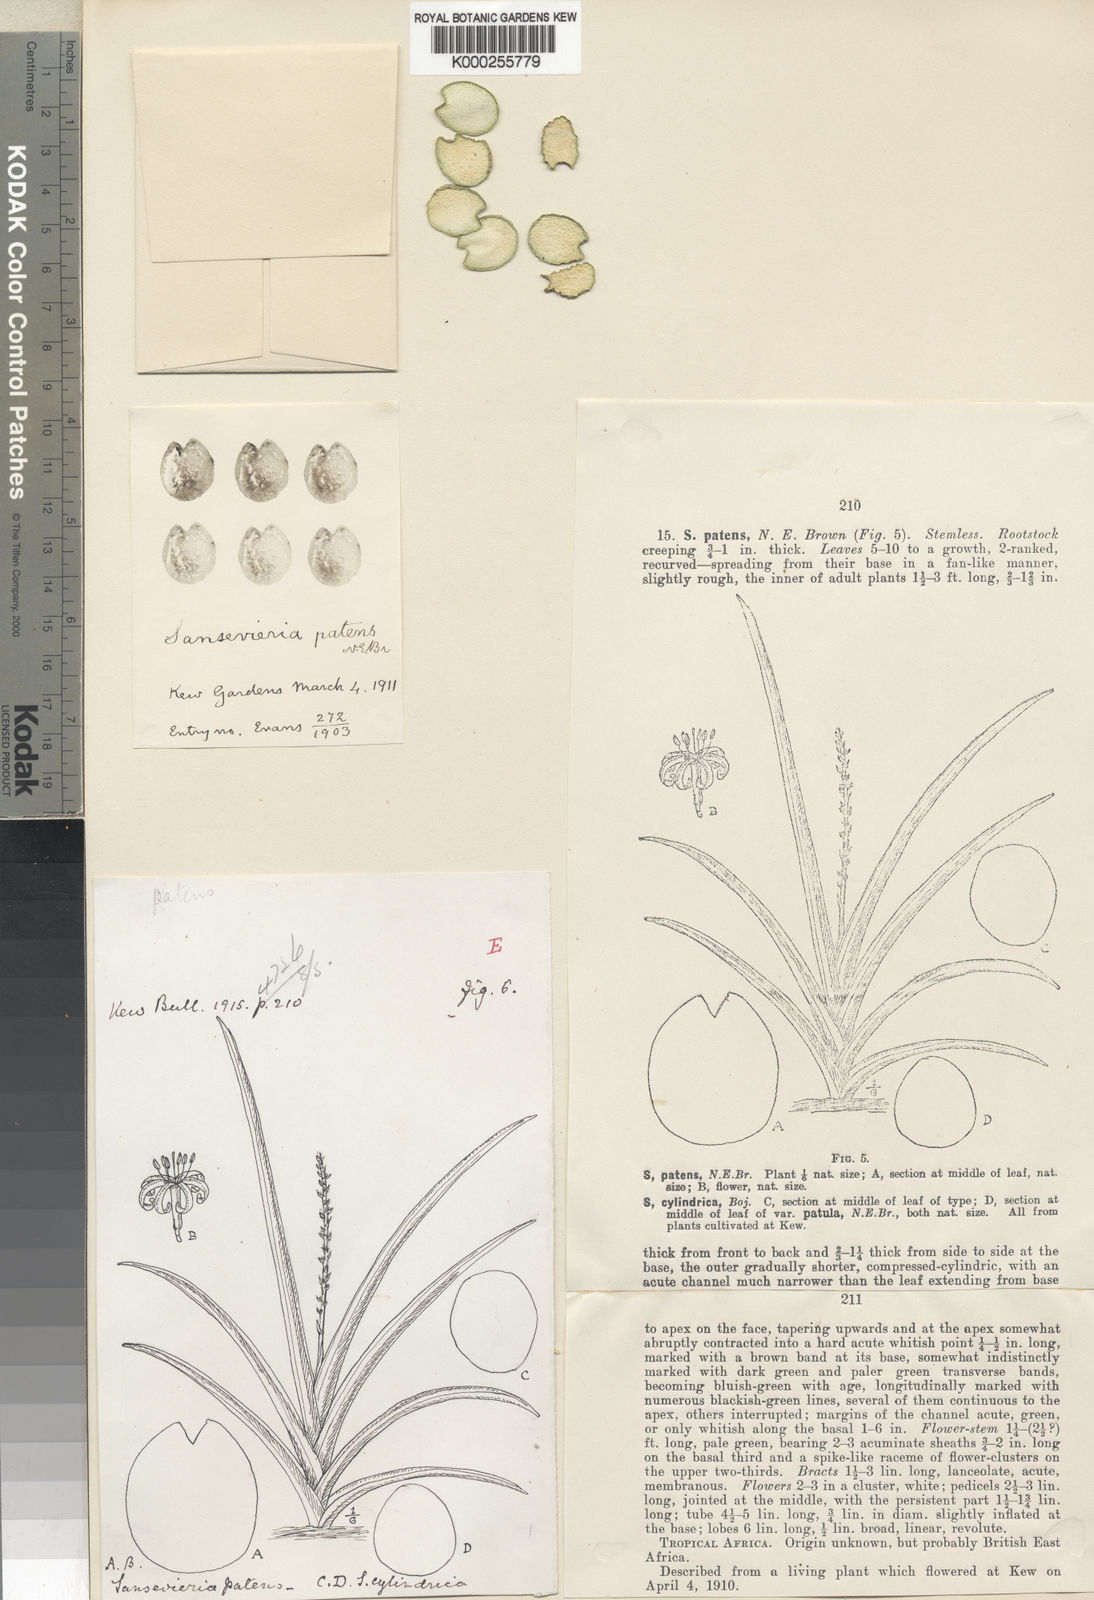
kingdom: Plantae
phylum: Tracheophyta
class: Liliopsida
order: Asparagales
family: Asparagaceae
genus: Dracaena
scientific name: Dracaena varians
